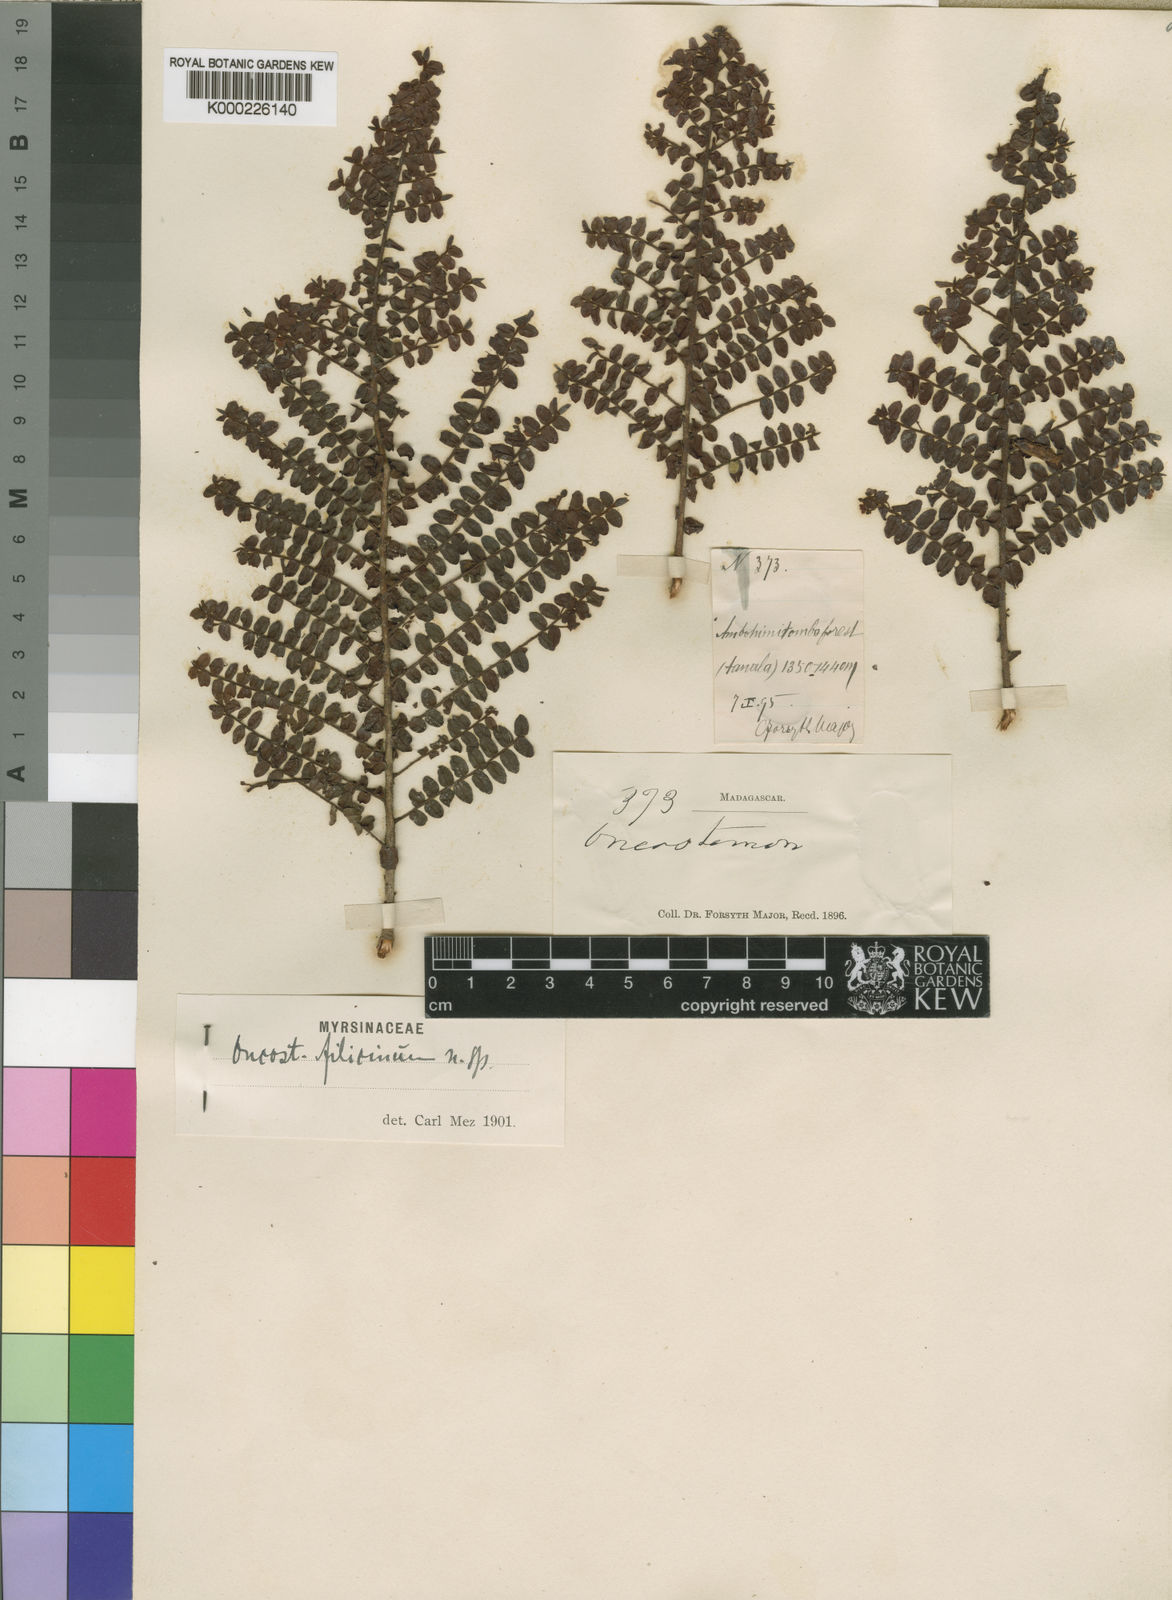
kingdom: Plantae
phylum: Tracheophyta
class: Magnoliopsida
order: Ericales
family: Primulaceae
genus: Oncostemum
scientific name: Oncostemum filicinum
